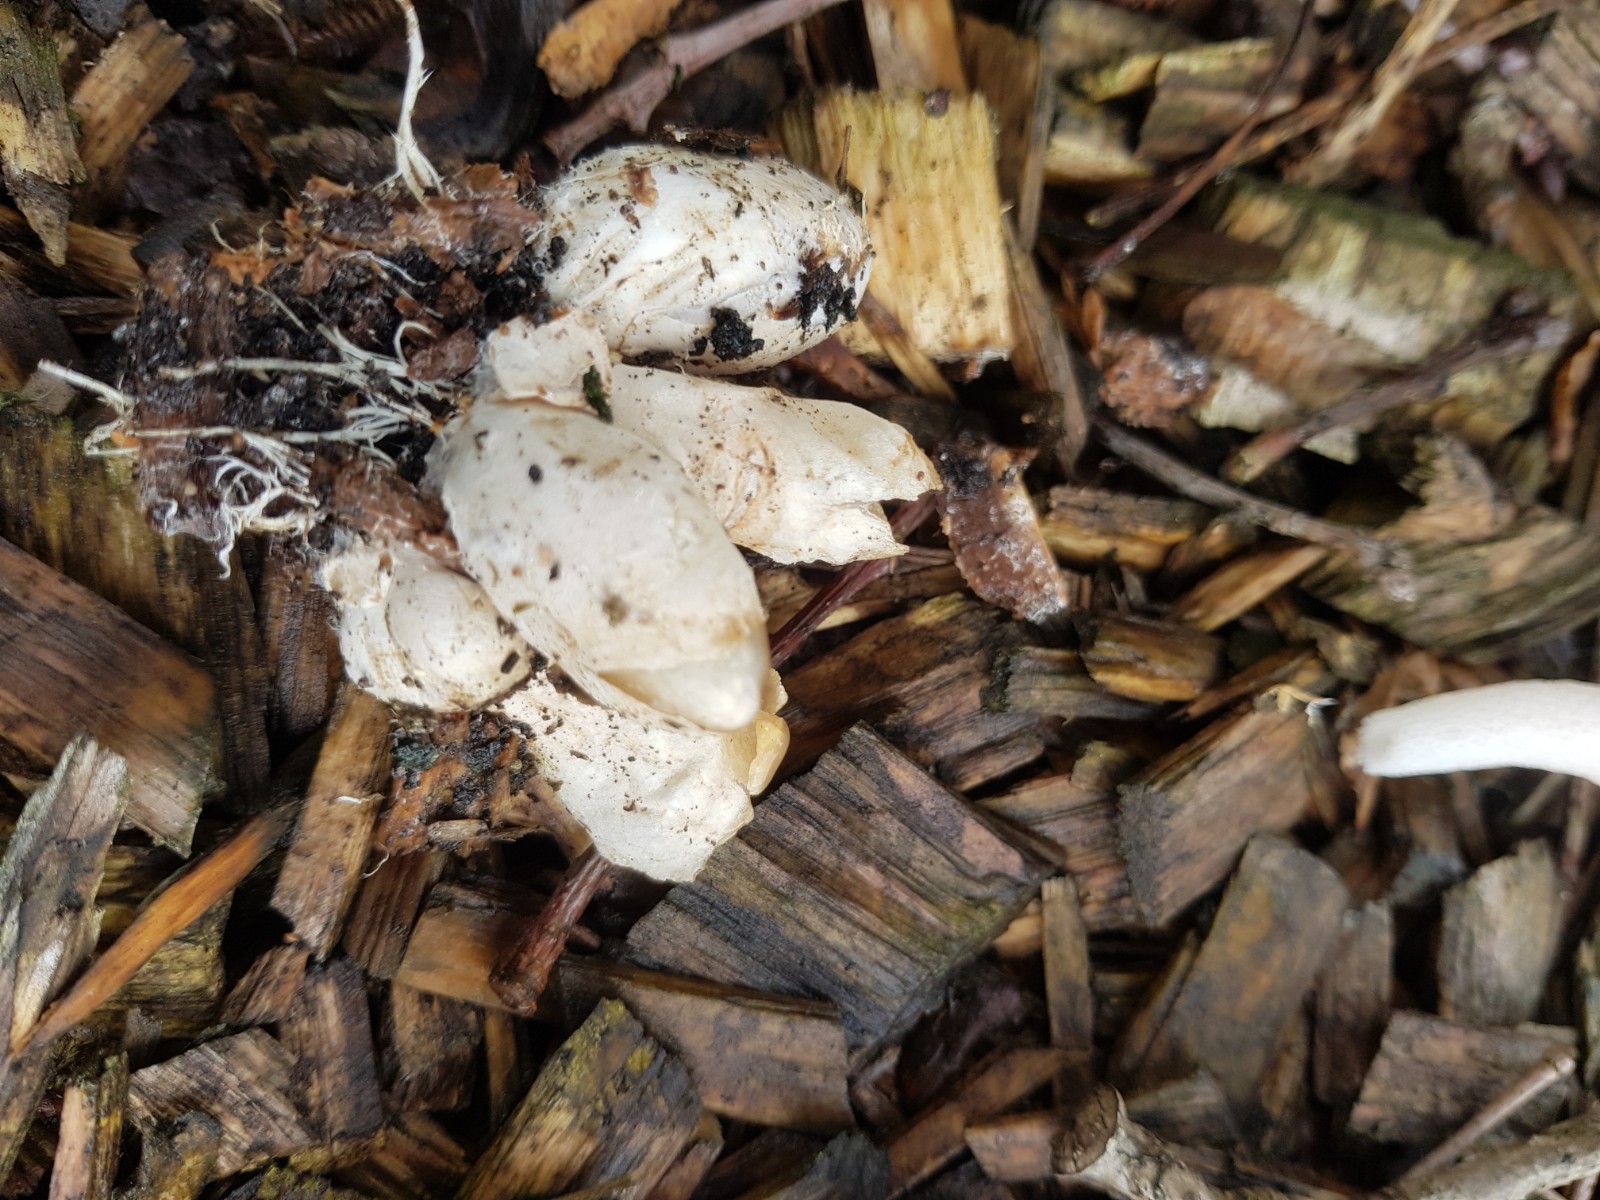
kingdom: Fungi
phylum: Basidiomycota
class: Agaricomycetes
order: Phallales
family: Phallaceae
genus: Mutinus
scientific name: Mutinus ravenelii
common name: rød stinksvamp
